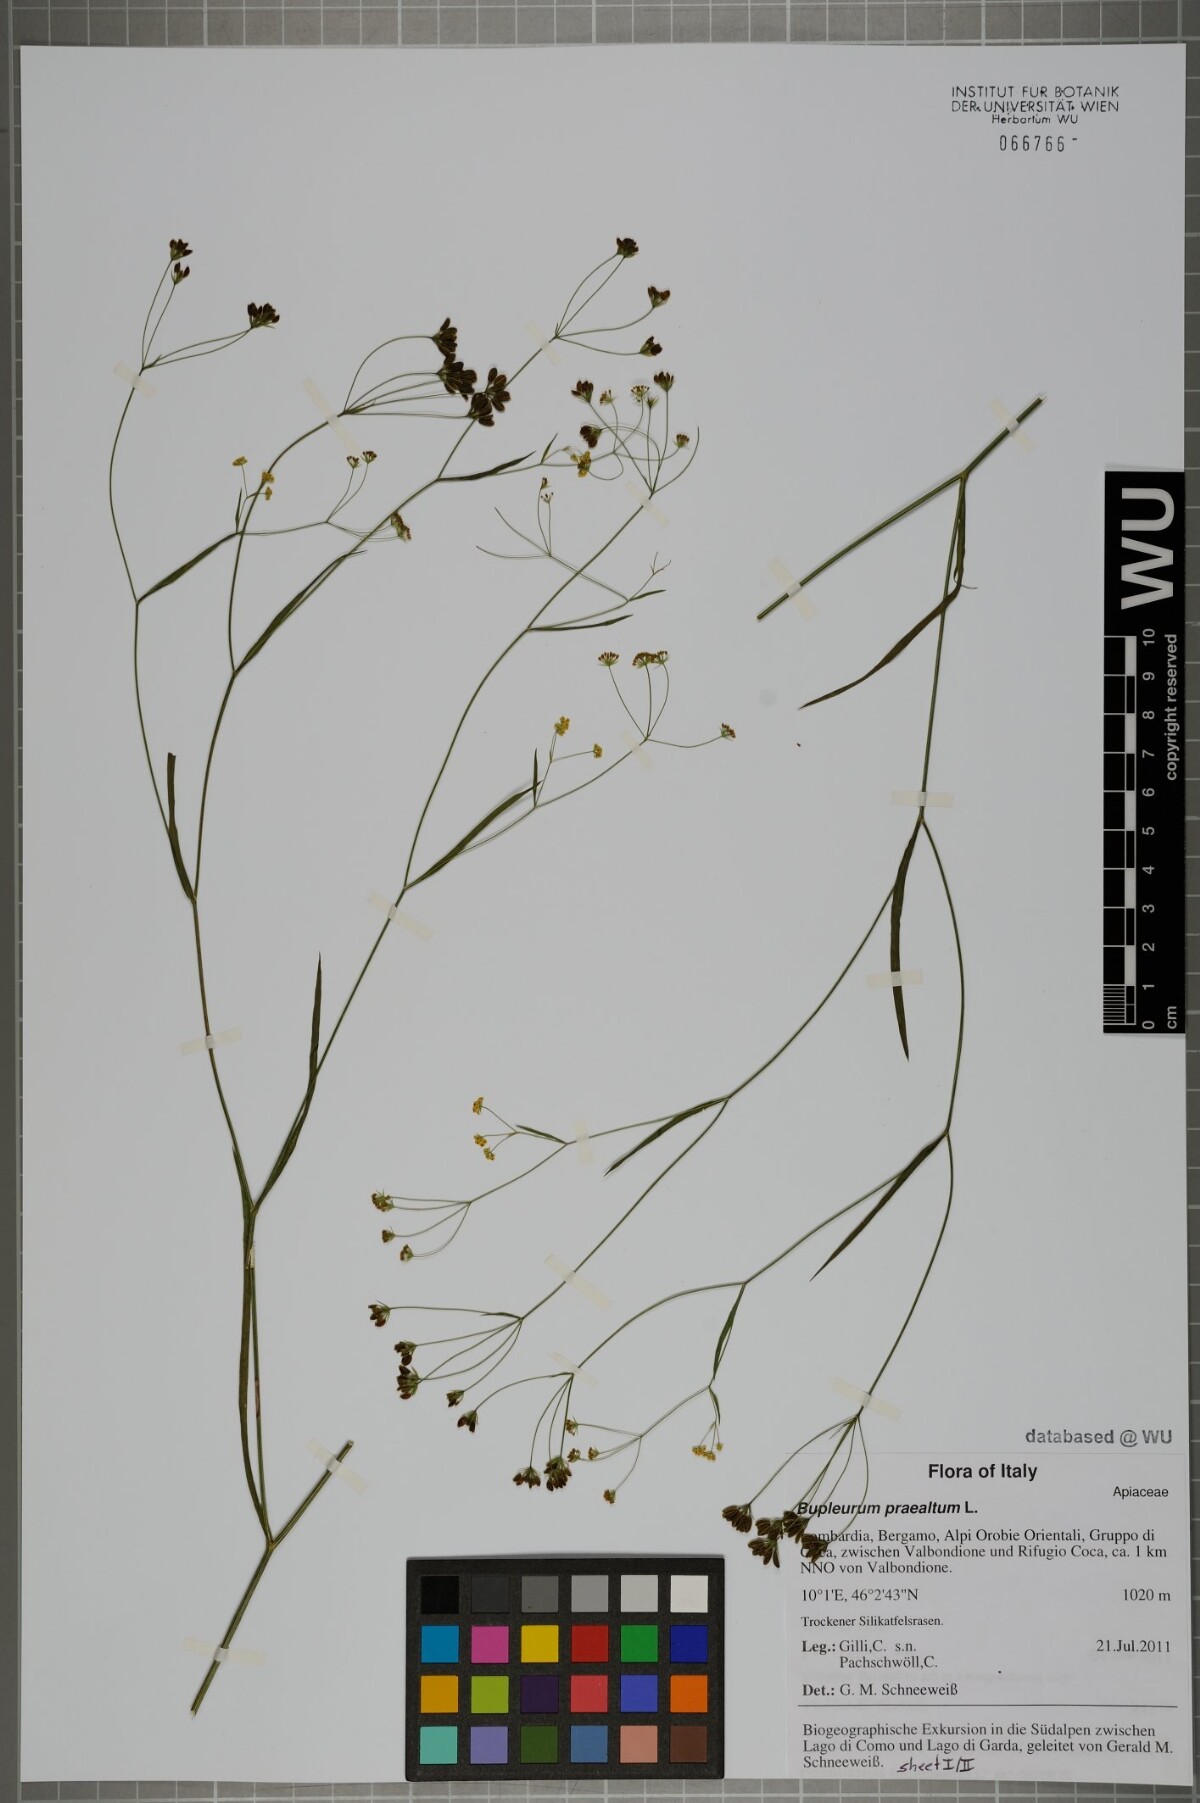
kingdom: Plantae
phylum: Tracheophyta
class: Magnoliopsida
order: Apiales
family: Apiaceae
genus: Bupleurum
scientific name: Bupleurum praealtum
